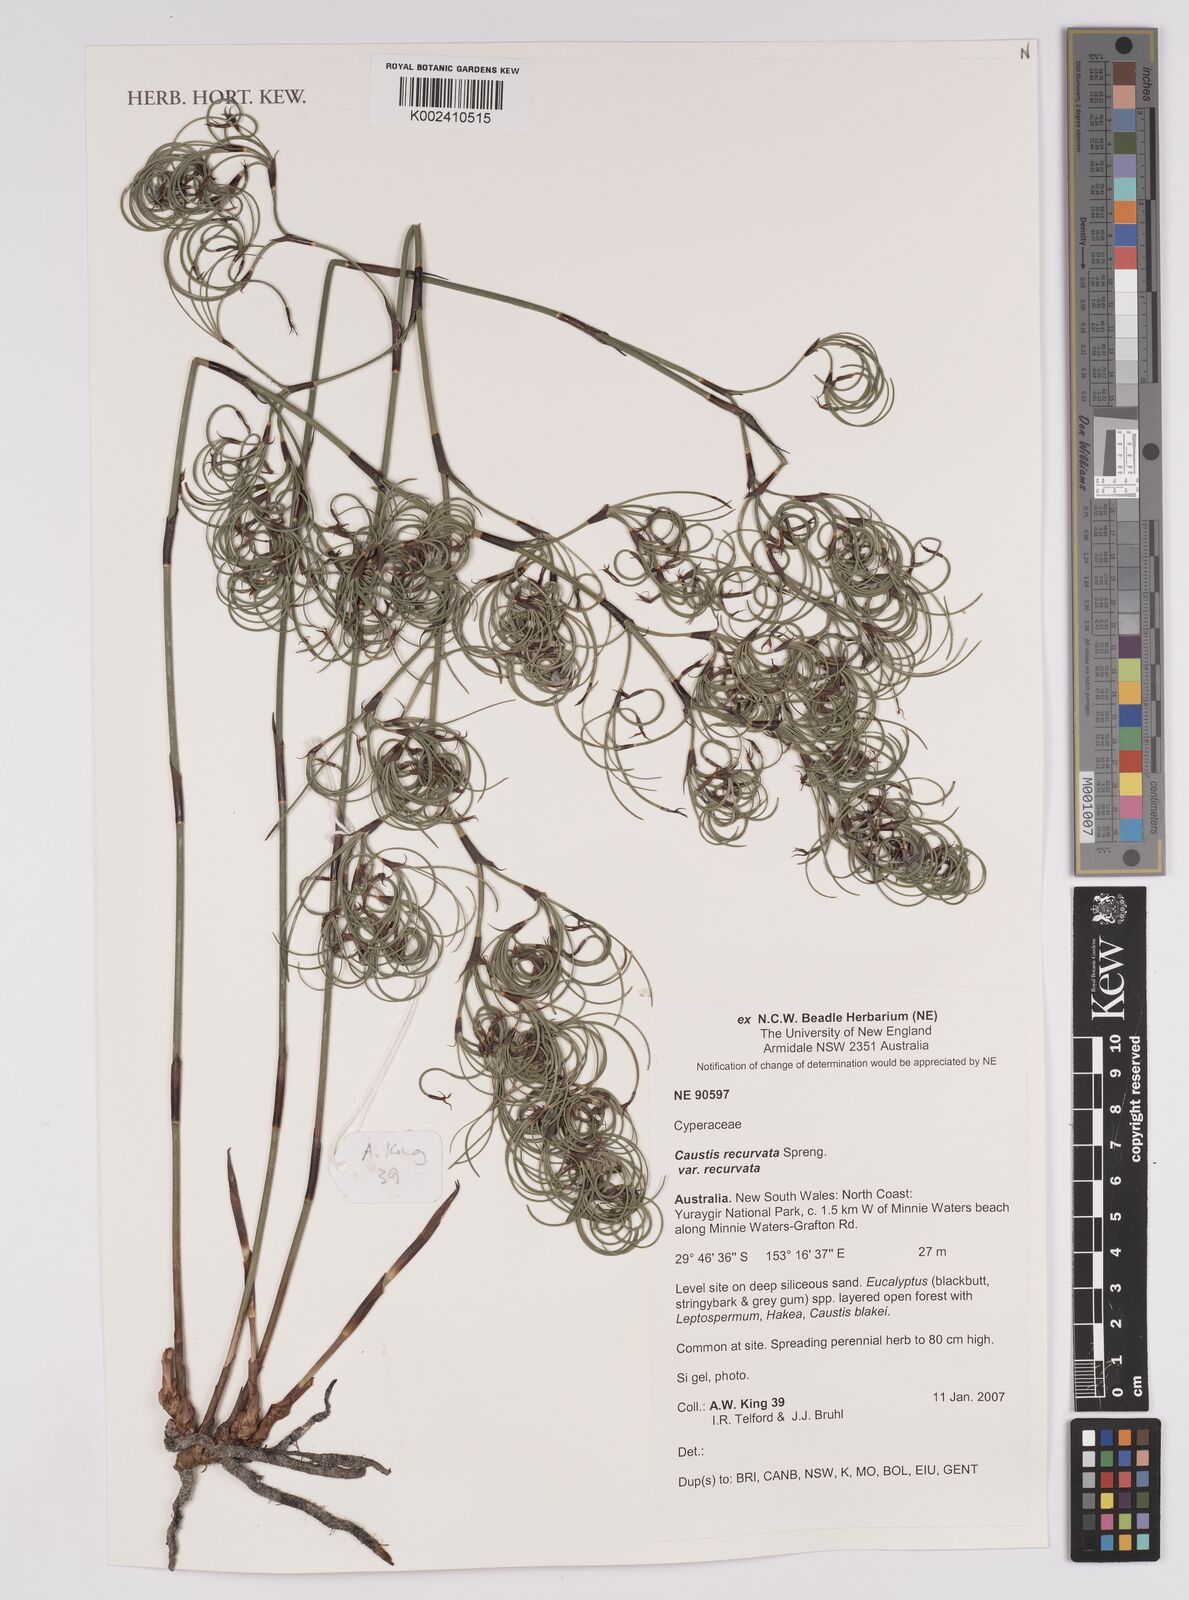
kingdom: Plantae
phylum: Tracheophyta
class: Liliopsida
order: Poales
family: Cyperaceae
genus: Caustis
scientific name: Caustis recurvata
